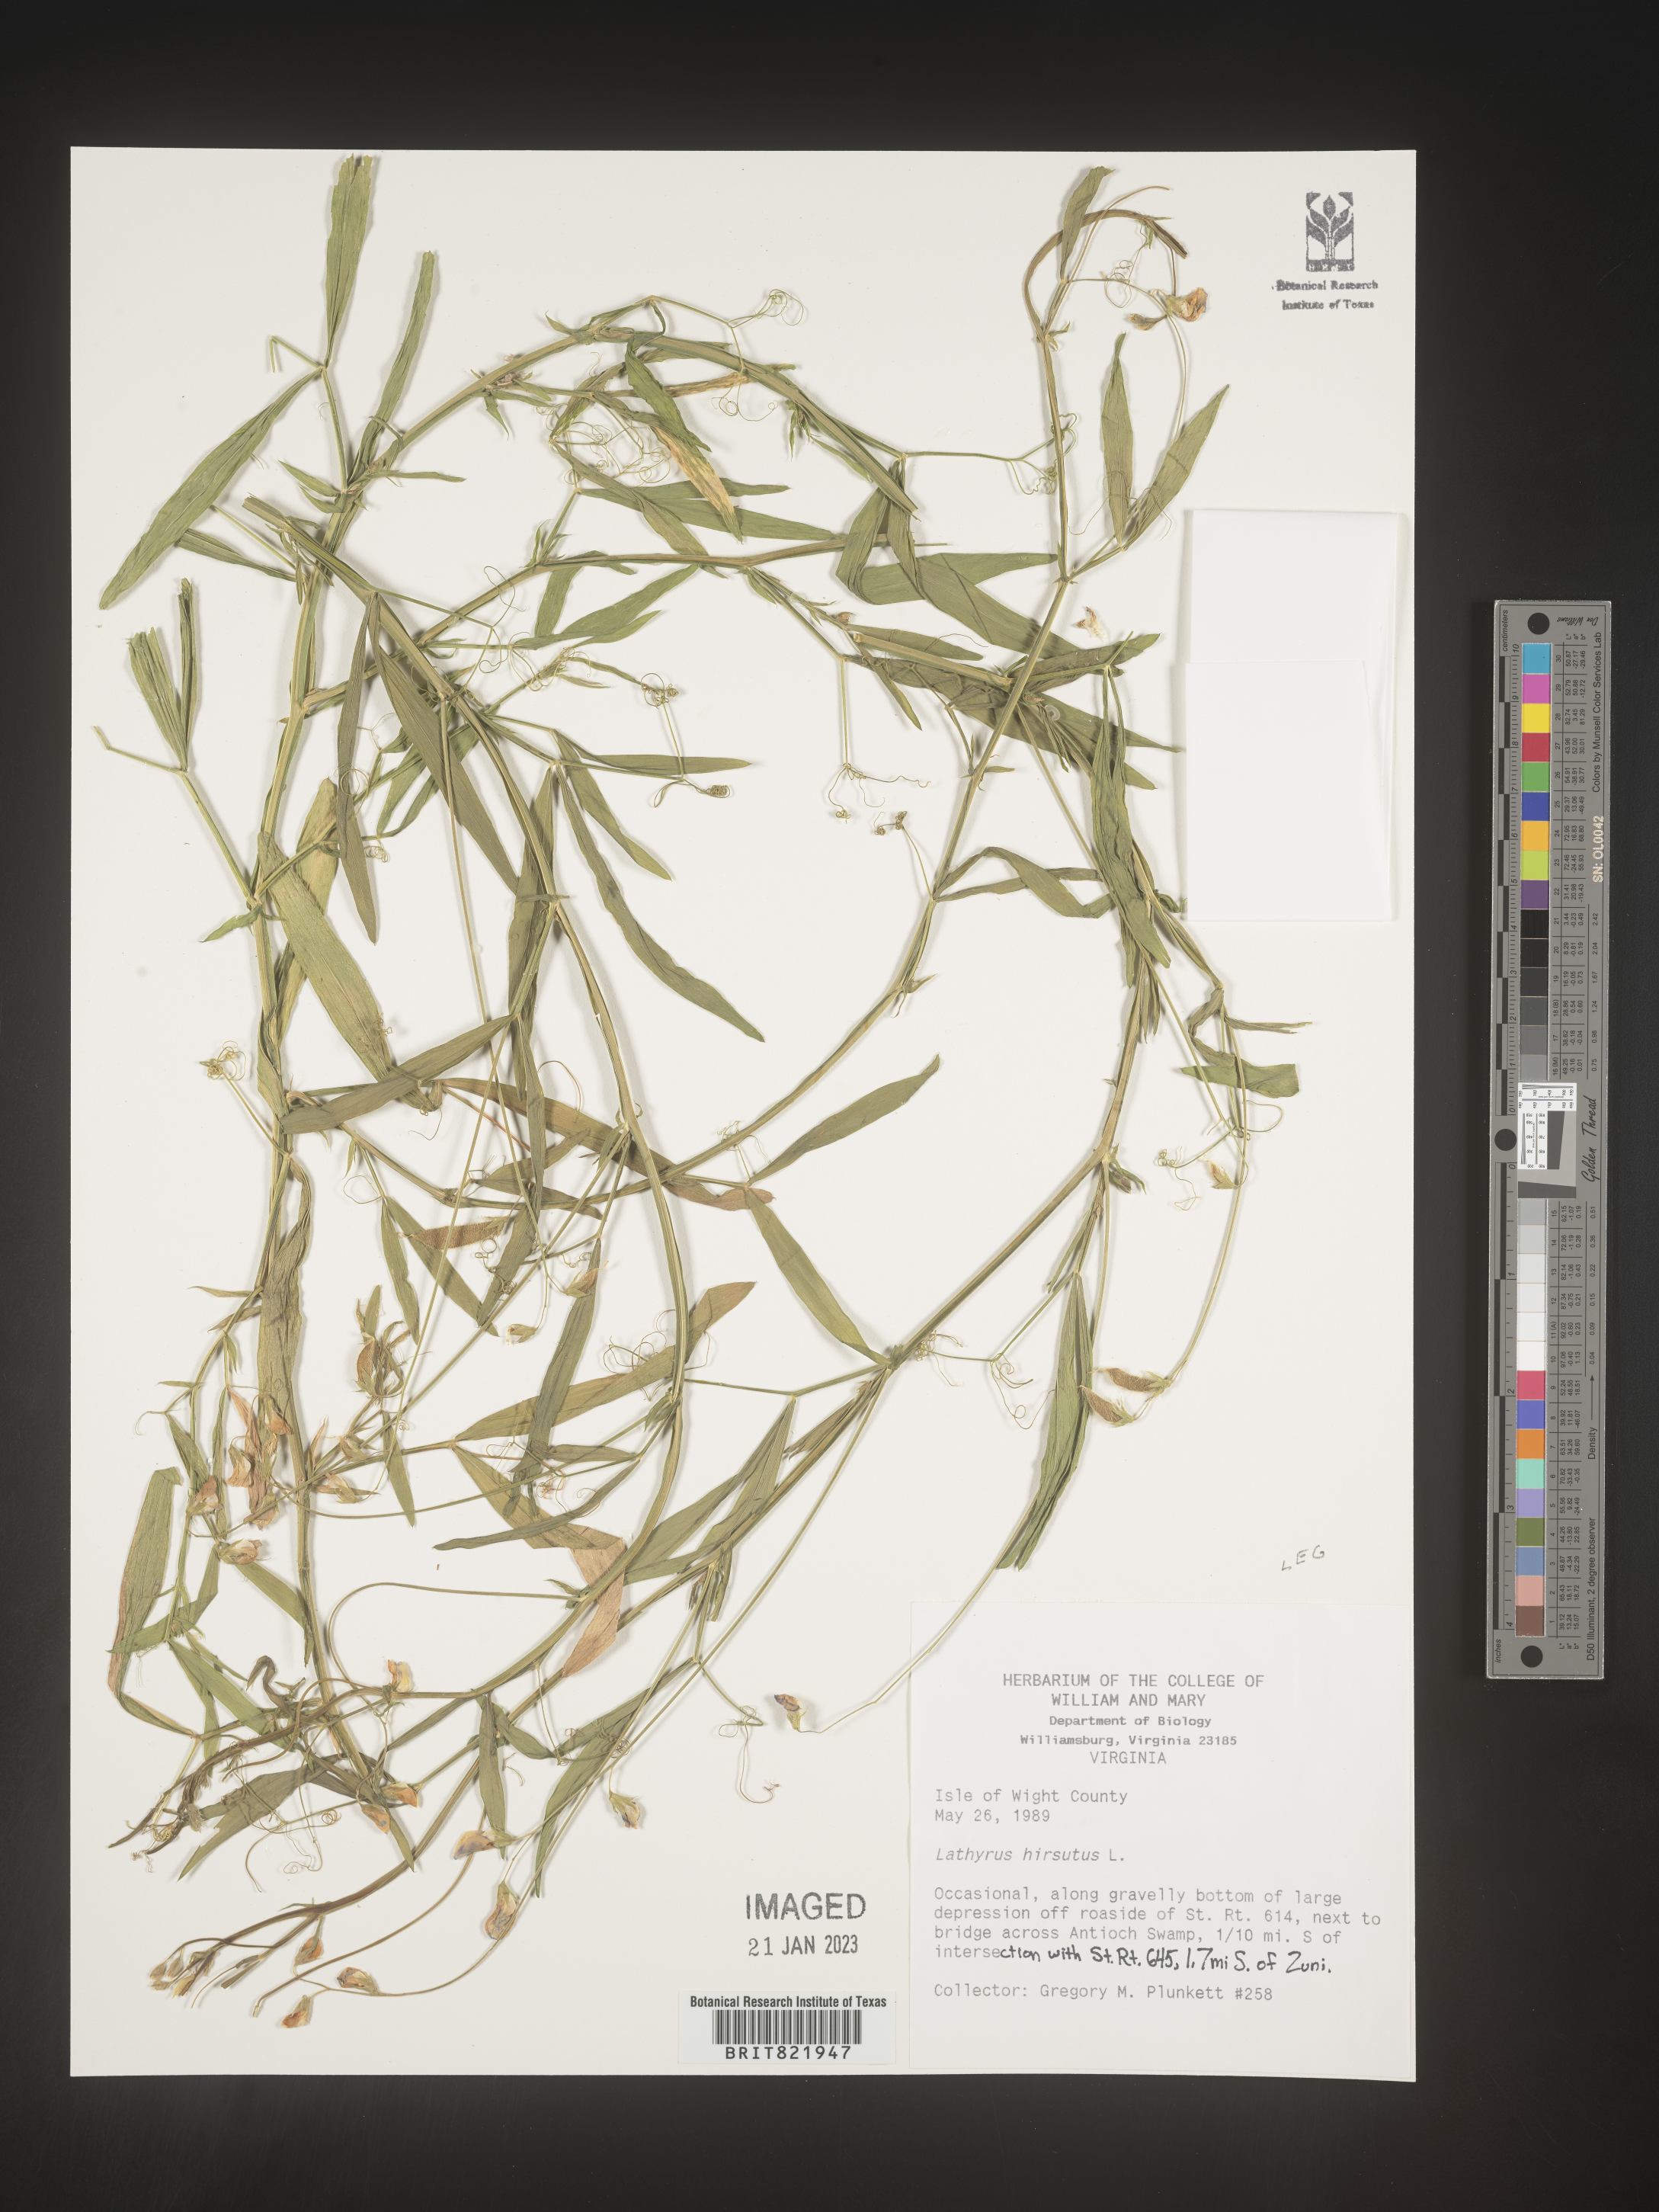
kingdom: Plantae
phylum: Tracheophyta
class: Magnoliopsida
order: Fabales
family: Fabaceae
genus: Lathyrus
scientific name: Lathyrus hirsutus
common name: Hairy vetchling
